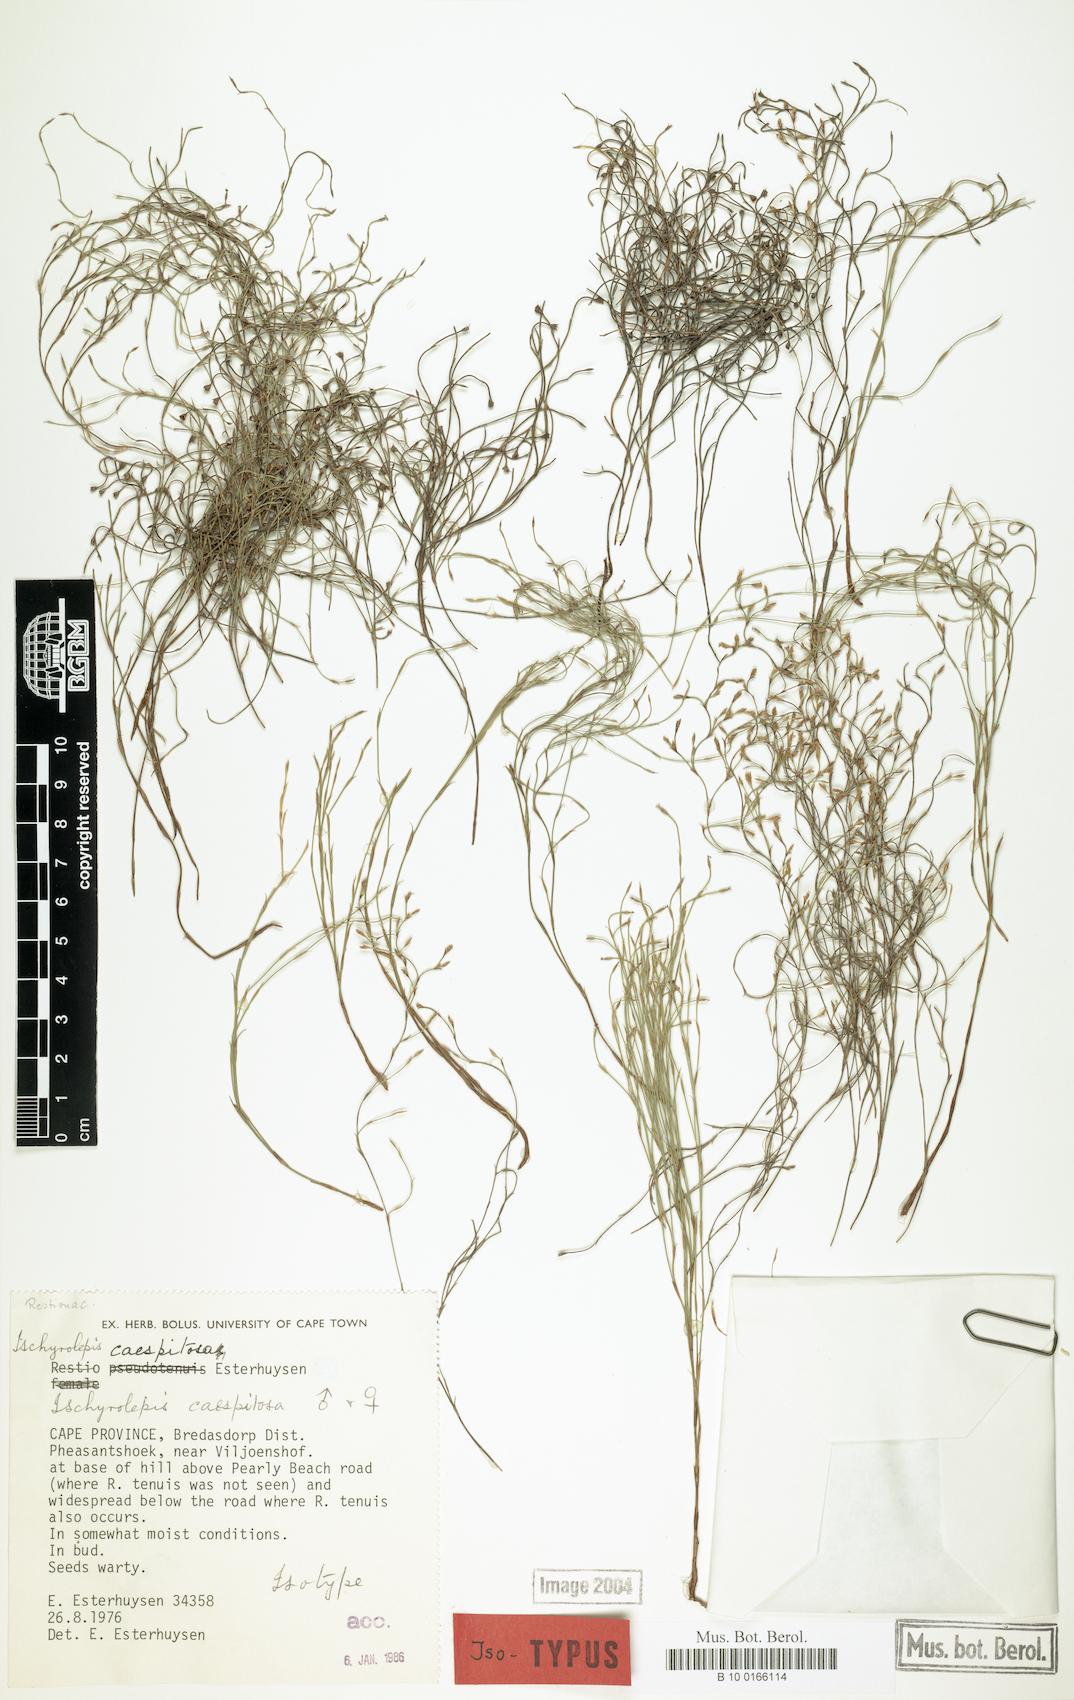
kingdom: Plantae
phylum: Tracheophyta
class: Liliopsida
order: Poales
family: Restionaceae
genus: Restio
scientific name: Restio caespitosus
